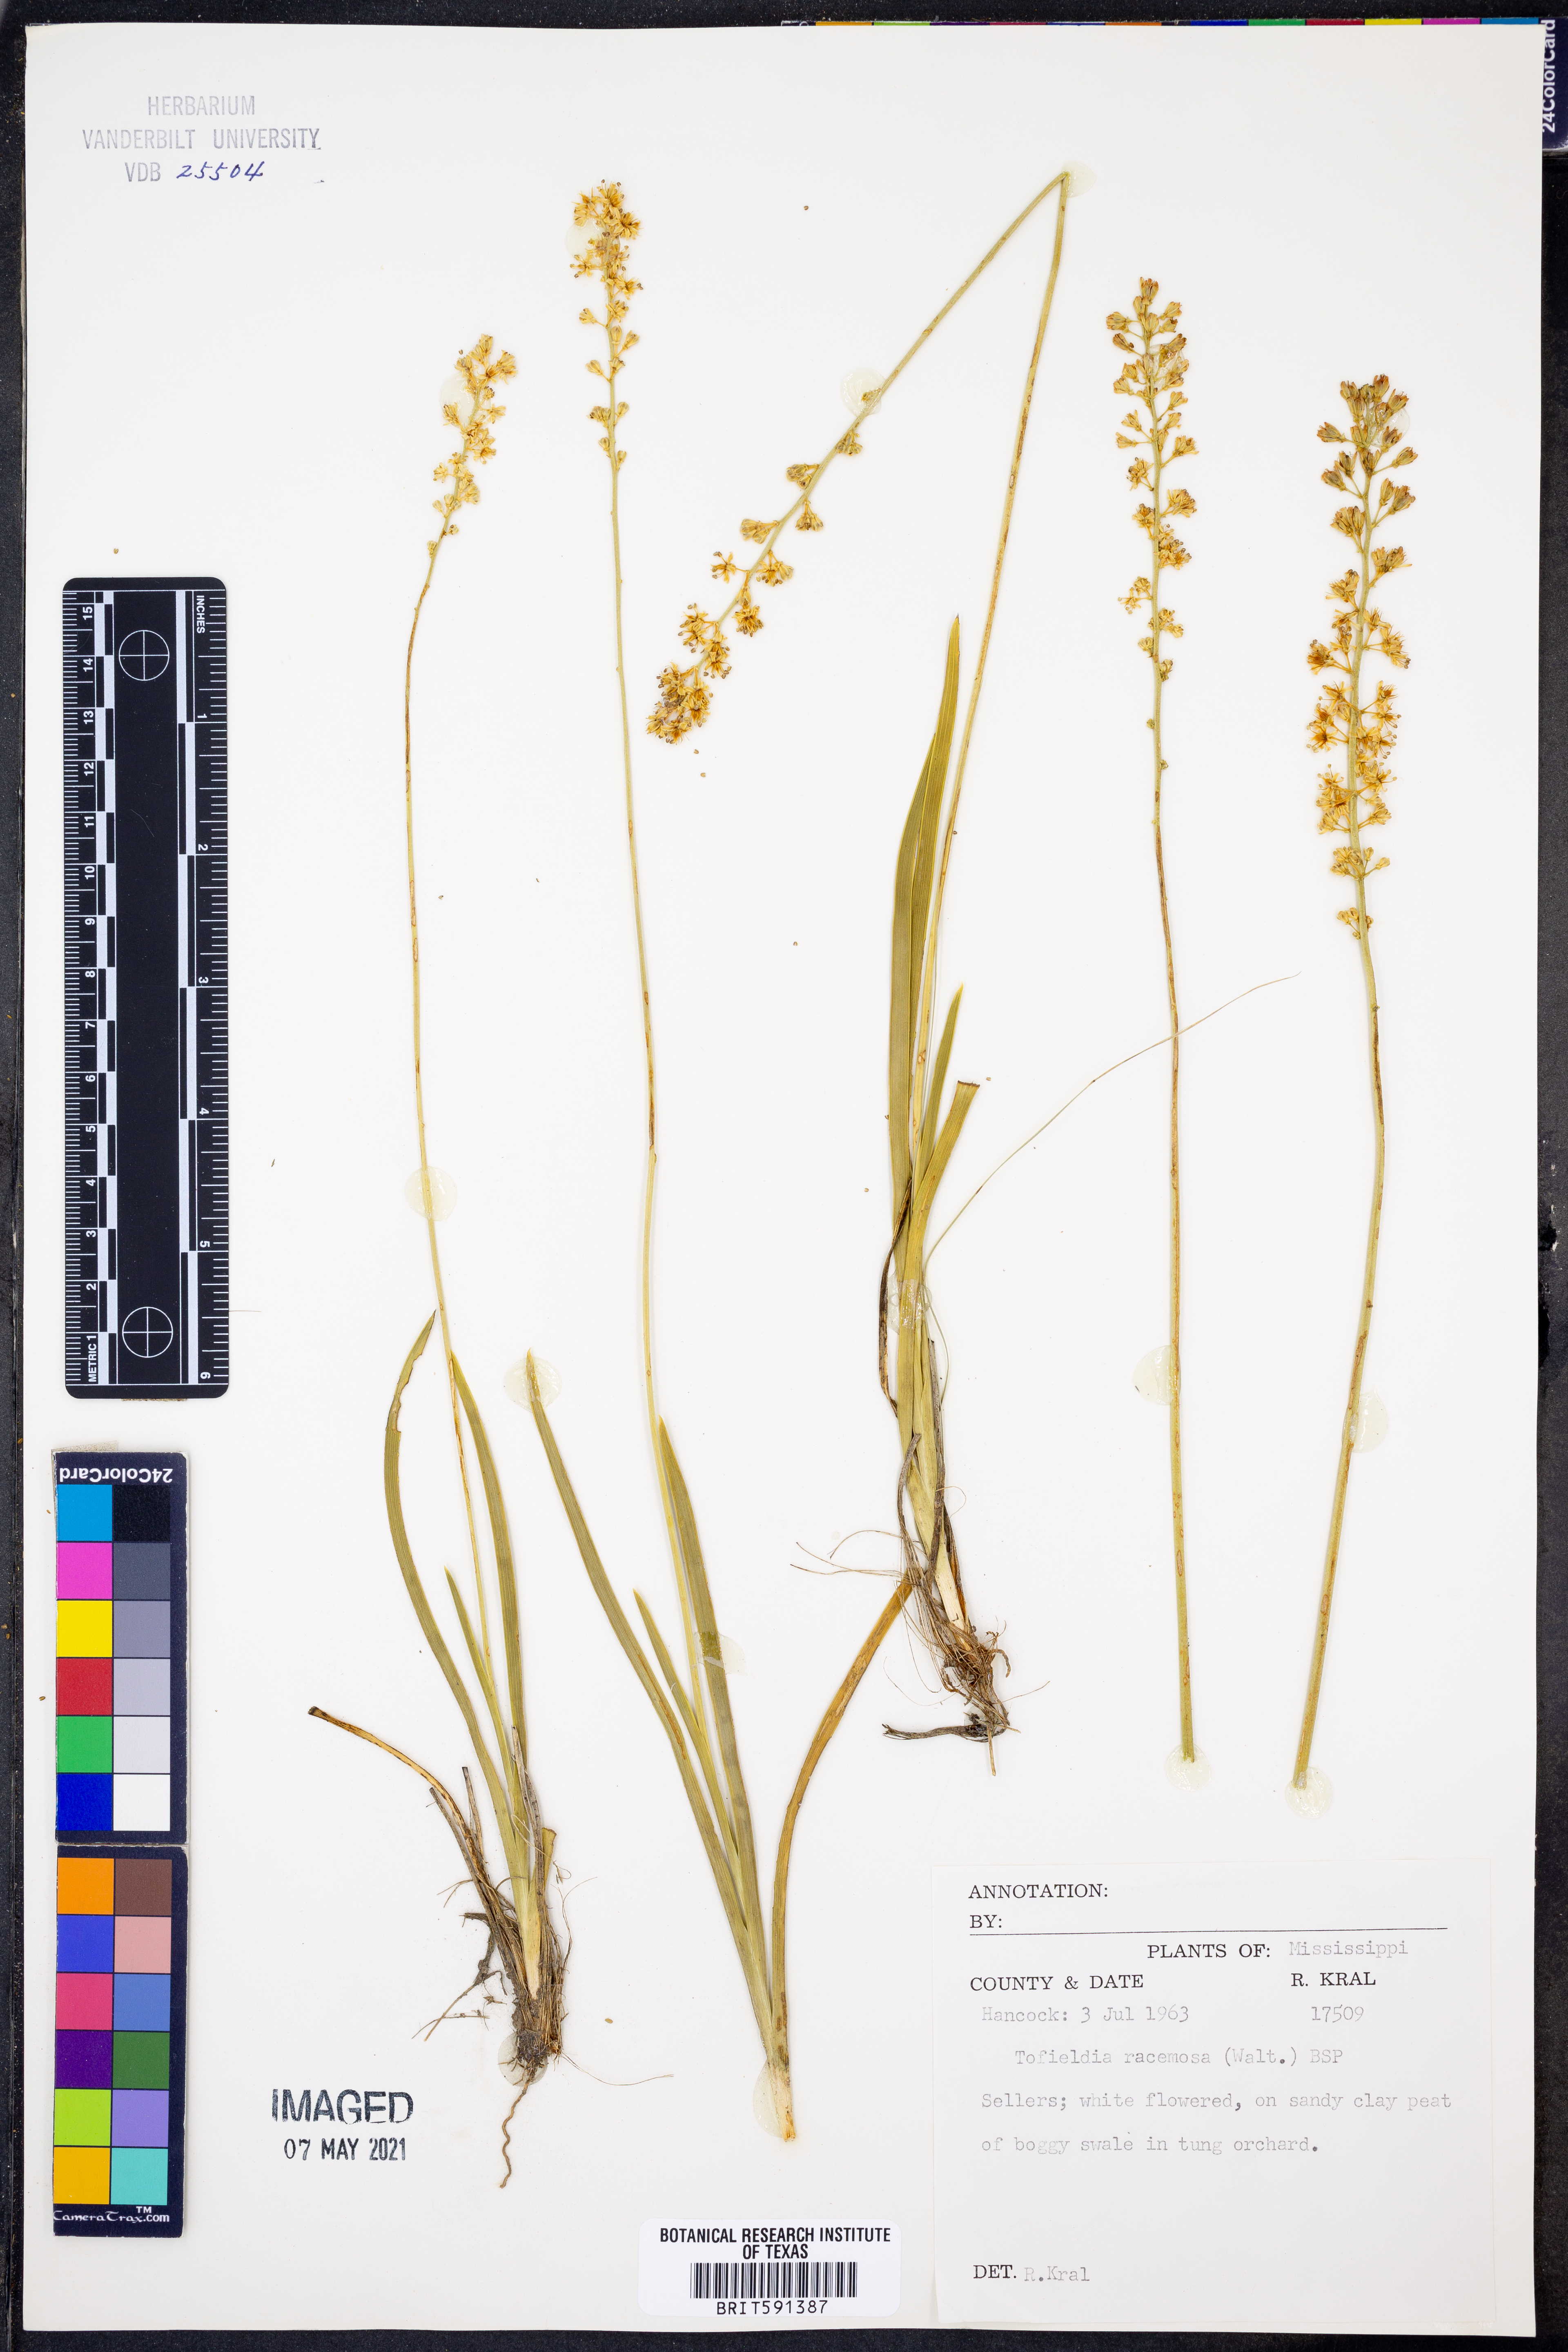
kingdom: Plantae
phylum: Tracheophyta
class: Liliopsida
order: Alismatales
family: Tofieldiaceae
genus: Triantha
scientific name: Triantha racemosa
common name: Coastal false asphodel
